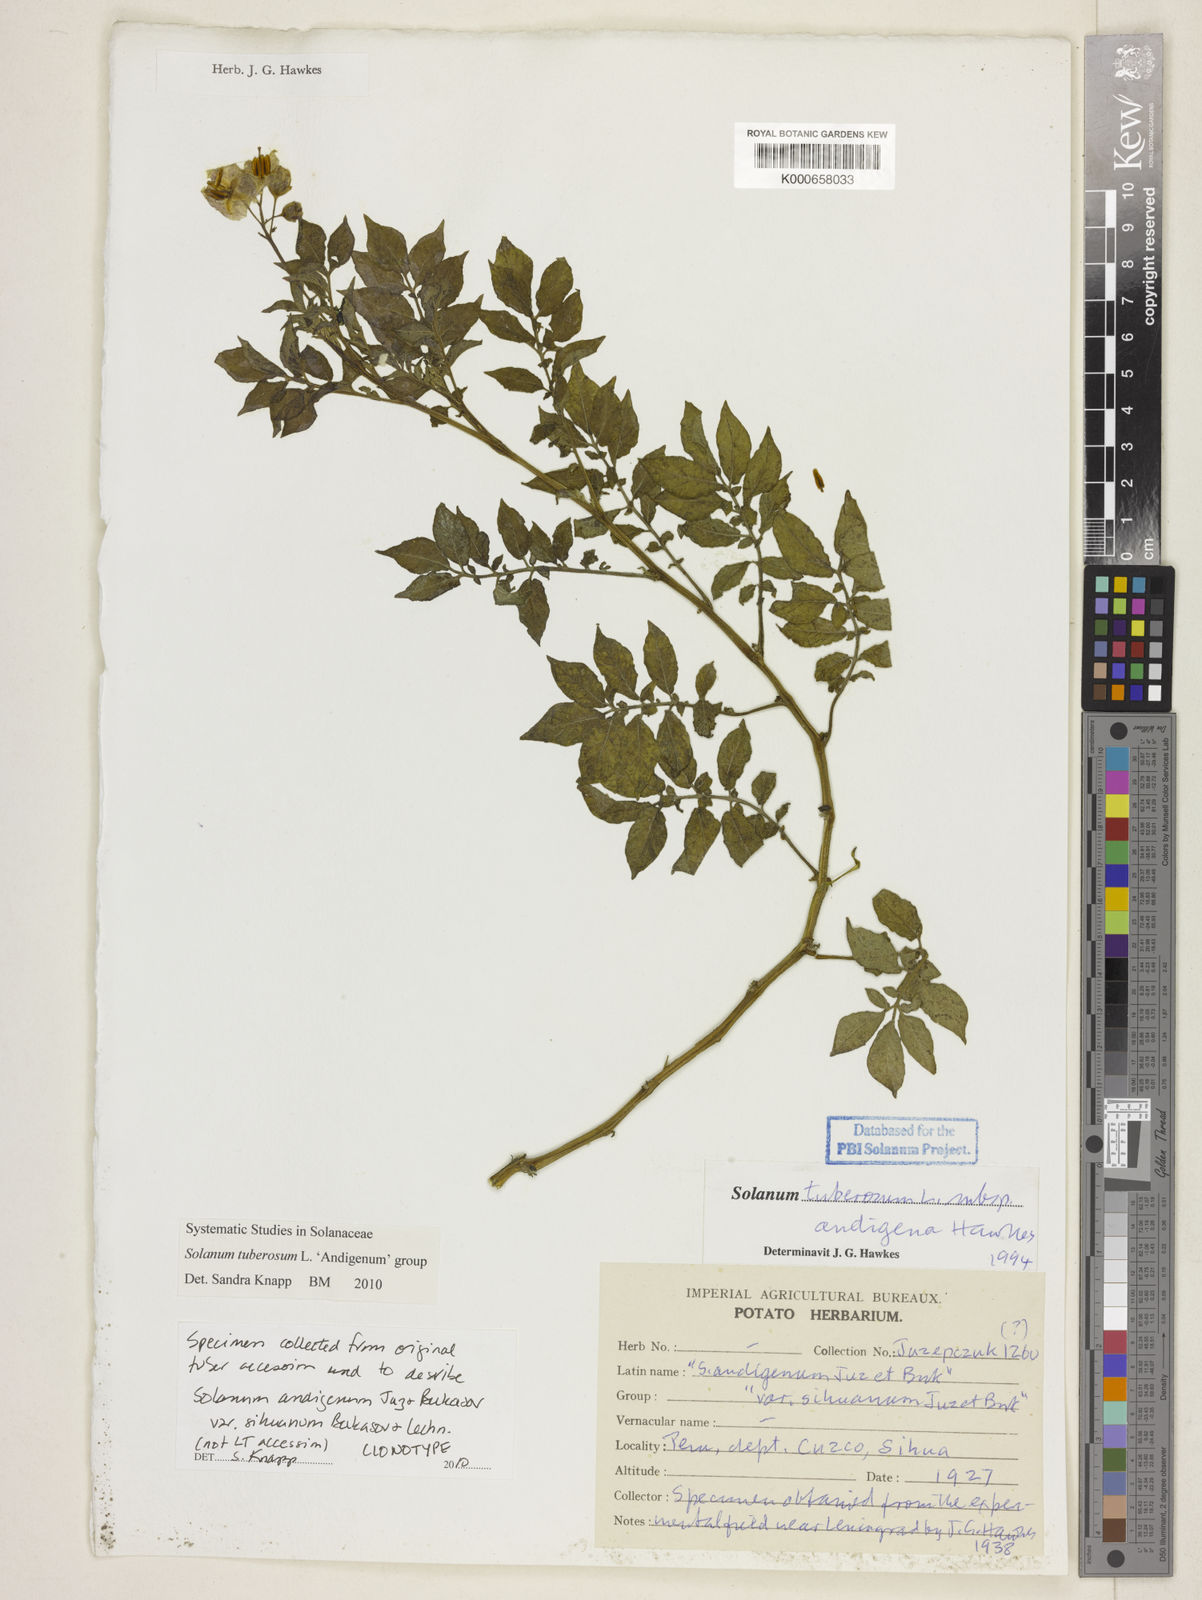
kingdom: Plantae
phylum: Tracheophyta
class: Magnoliopsida
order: Solanales
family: Solanaceae
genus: Solanum
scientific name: Solanum tuberosum
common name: Potato
